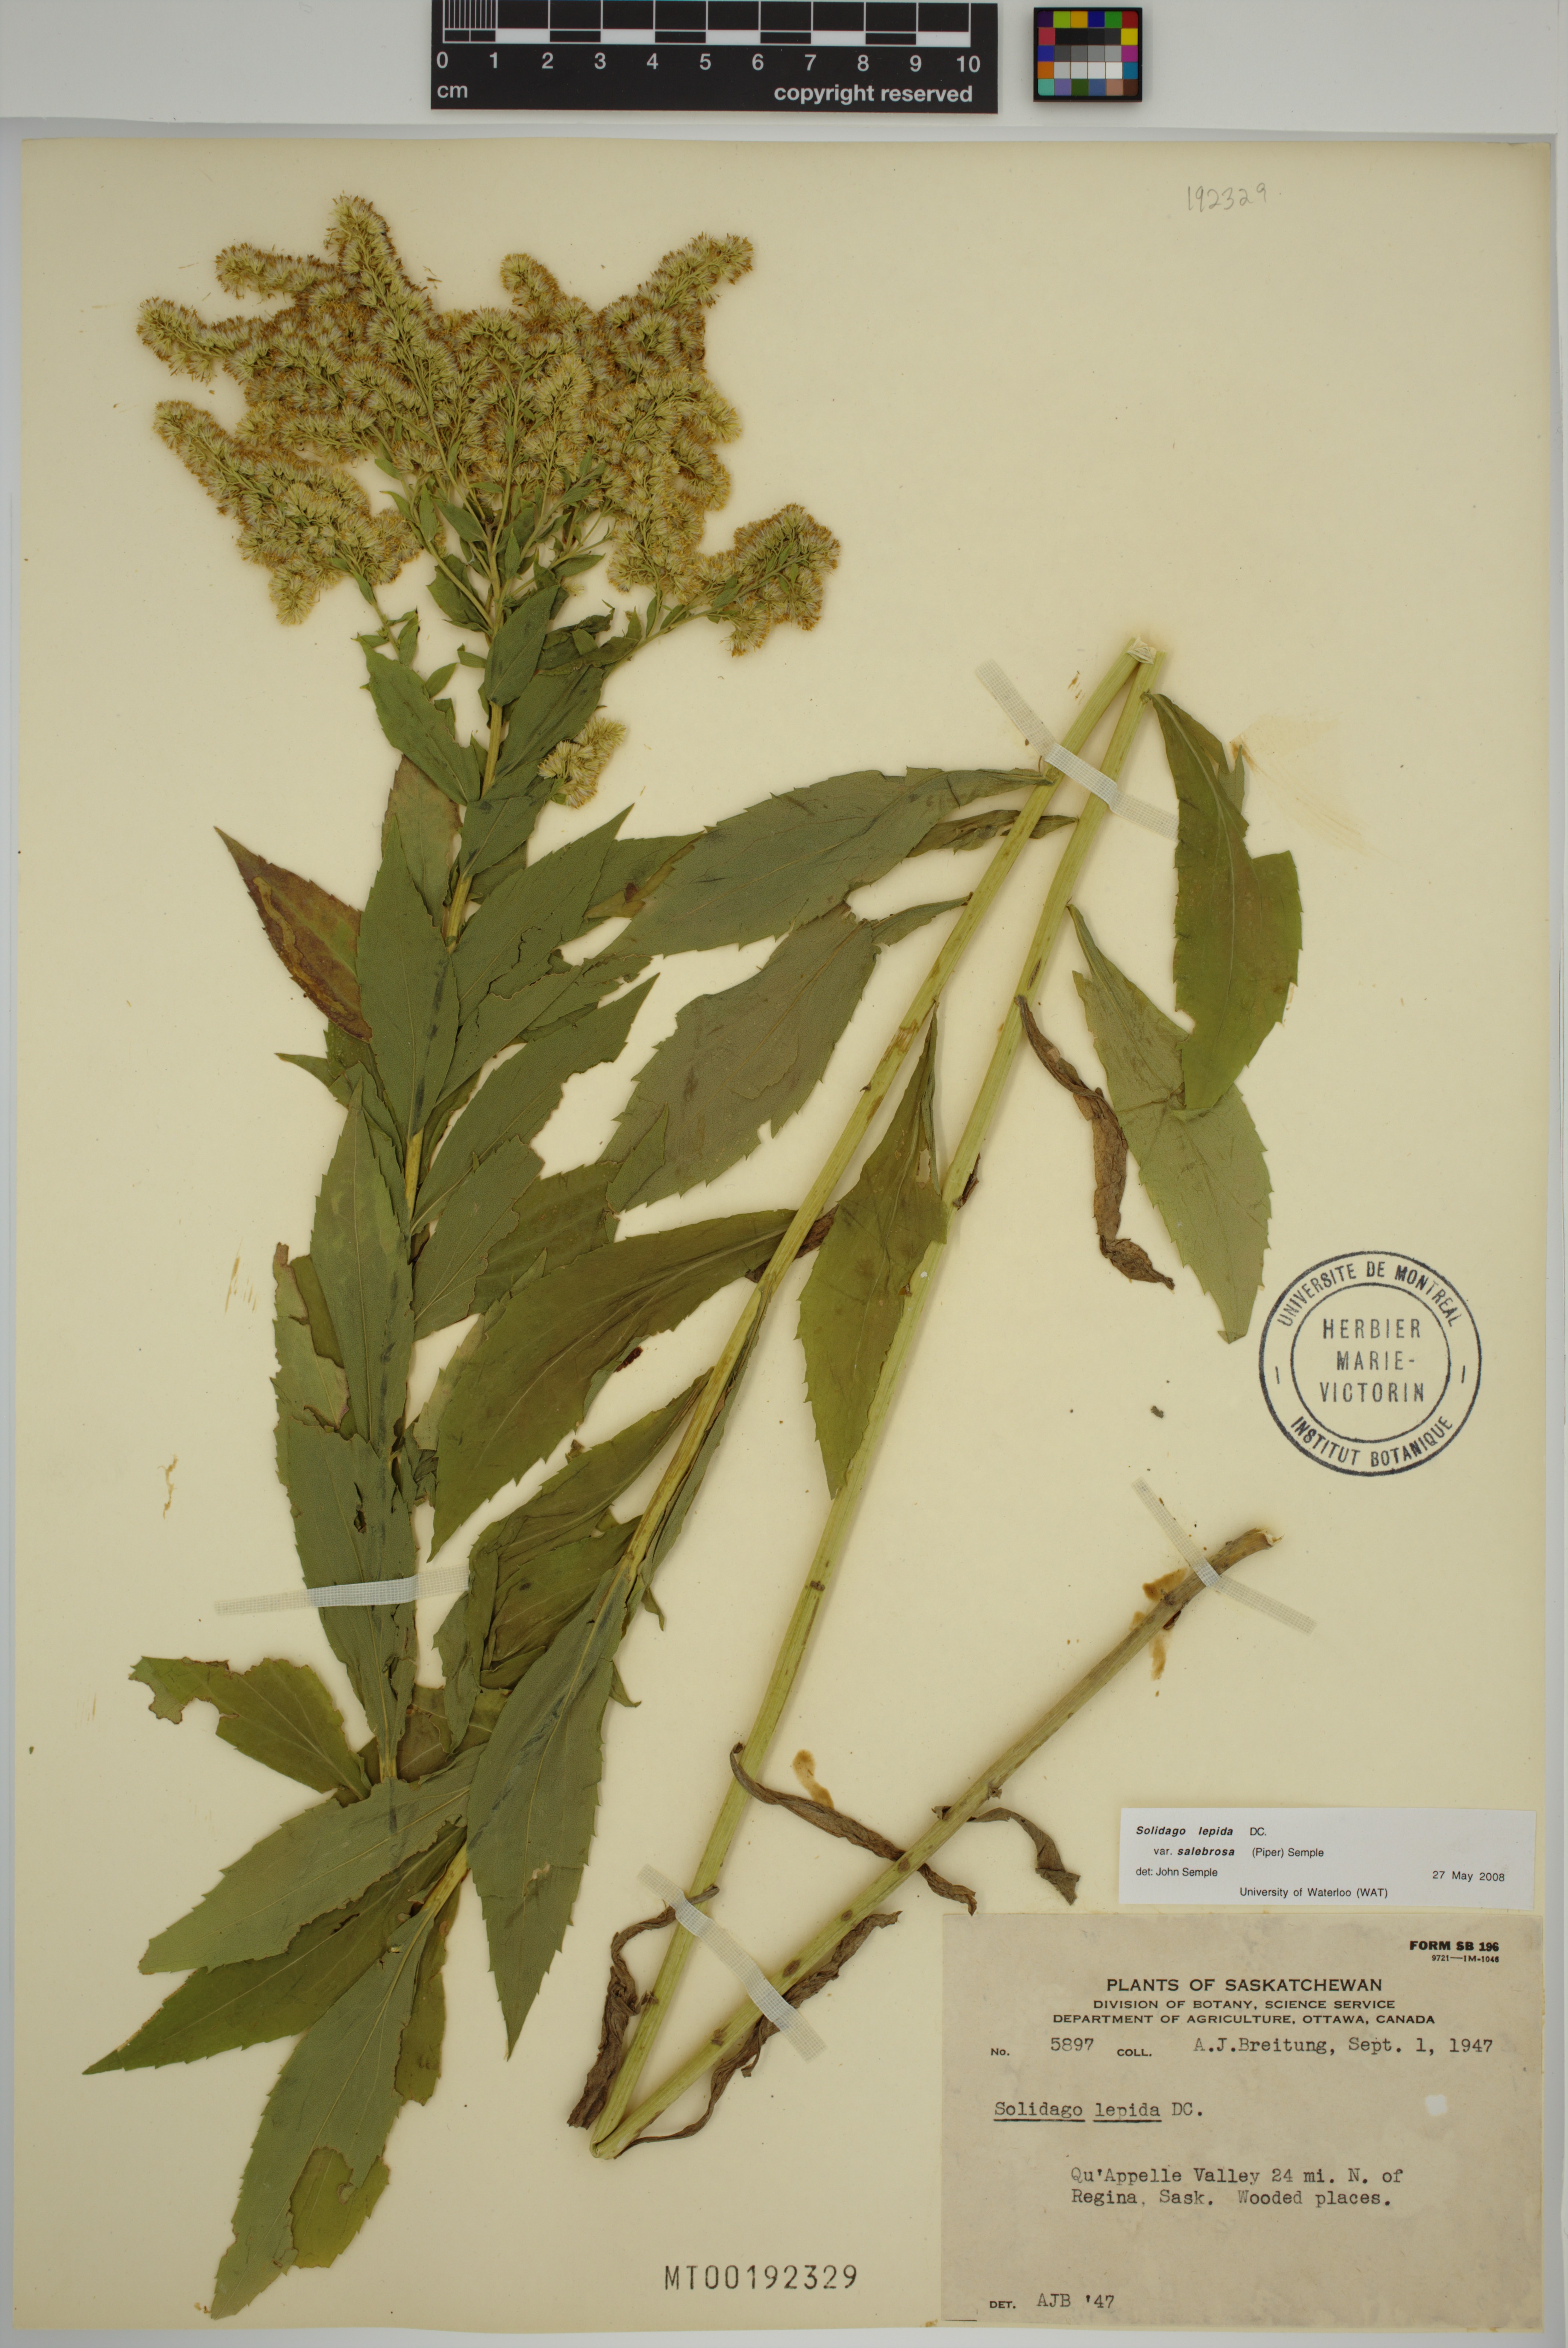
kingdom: Plantae
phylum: Tracheophyta
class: Magnoliopsida
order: Asterales
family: Asteraceae
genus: Solidago
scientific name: Solidago lepida
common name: Western canada goldenrod
